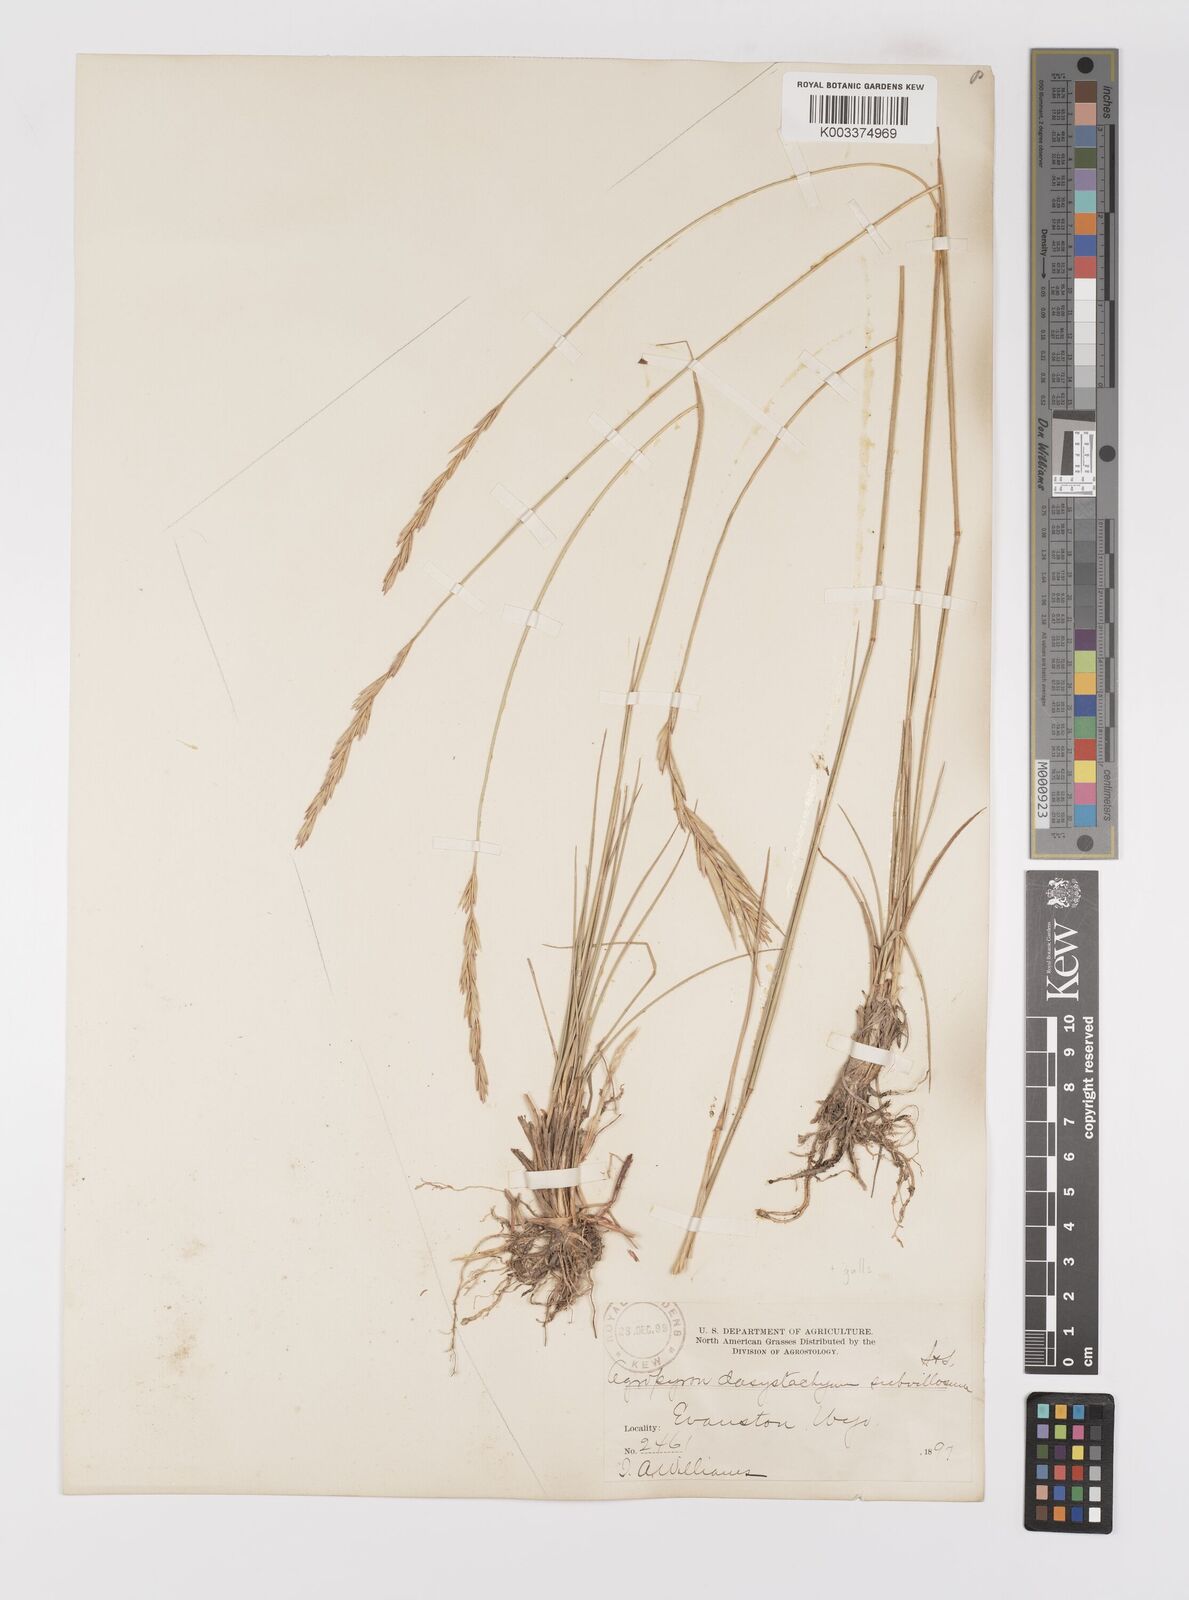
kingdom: Plantae
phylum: Tracheophyta
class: Liliopsida
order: Poales
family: Poaceae
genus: Elymus
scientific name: Elymus lanceolatus
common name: Thick-spike wheatgrass
